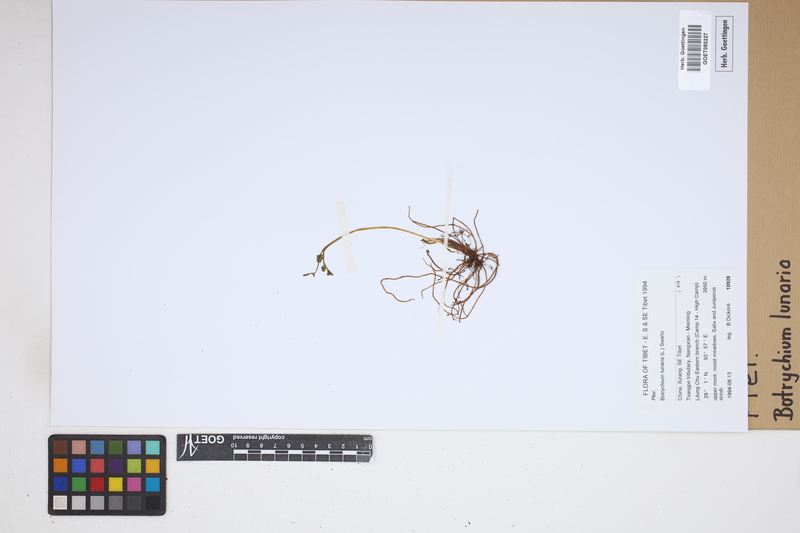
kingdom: Plantae
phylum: Tracheophyta
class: Polypodiopsida
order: Ophioglossales
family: Ophioglossaceae
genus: Botrychium
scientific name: Botrychium lunaria
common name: Moonwort
